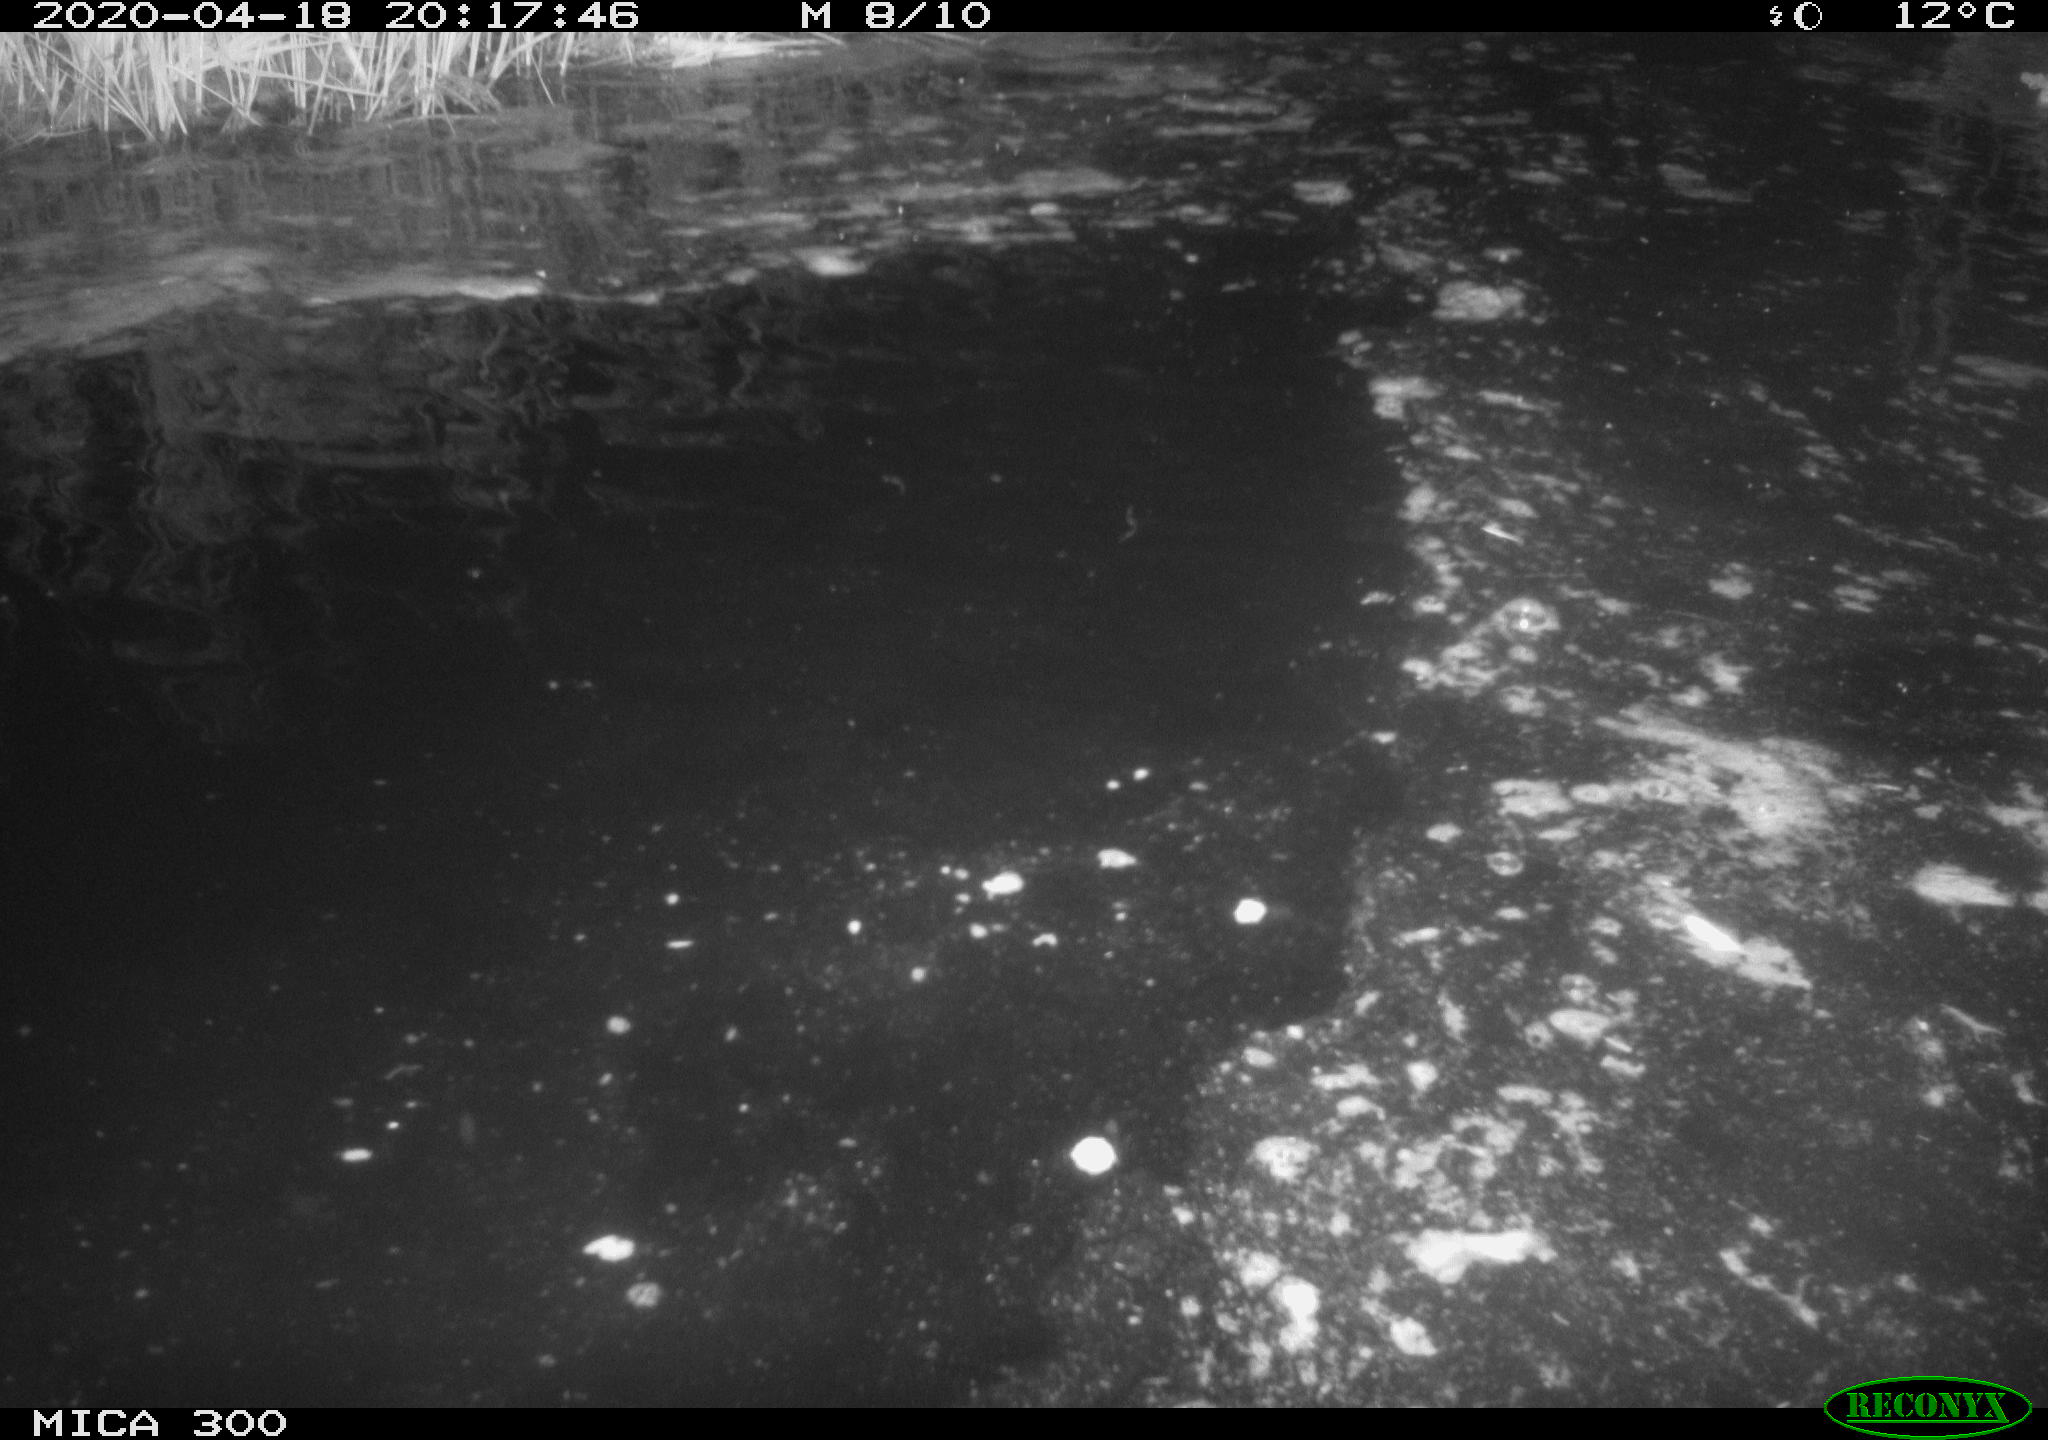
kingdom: Animalia
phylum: Chordata
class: Aves
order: Anseriformes
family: Anatidae
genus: Anas
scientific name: Anas platyrhynchos
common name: Mallard
